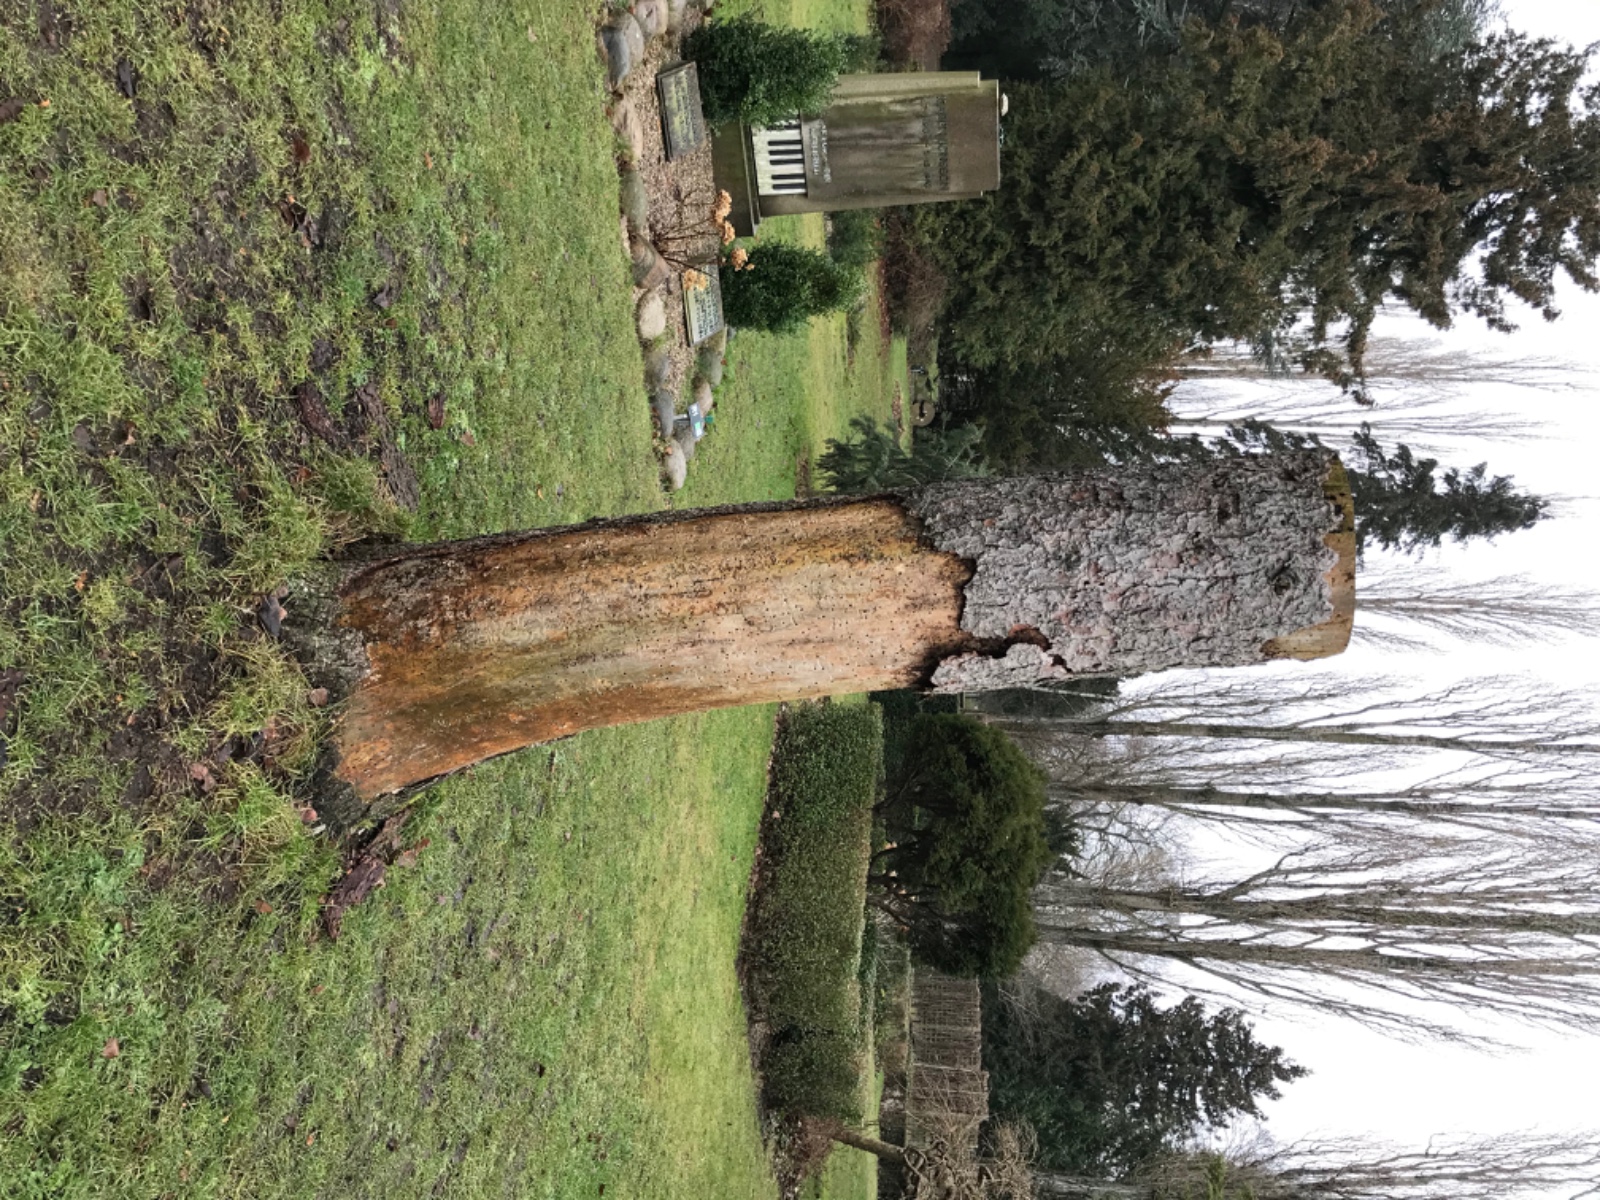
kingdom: Fungi
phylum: Ascomycota
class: Dothideomycetes
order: Mytilinidiales
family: Mytilinidiaceae
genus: Actidium
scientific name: Actidium hysterioides
